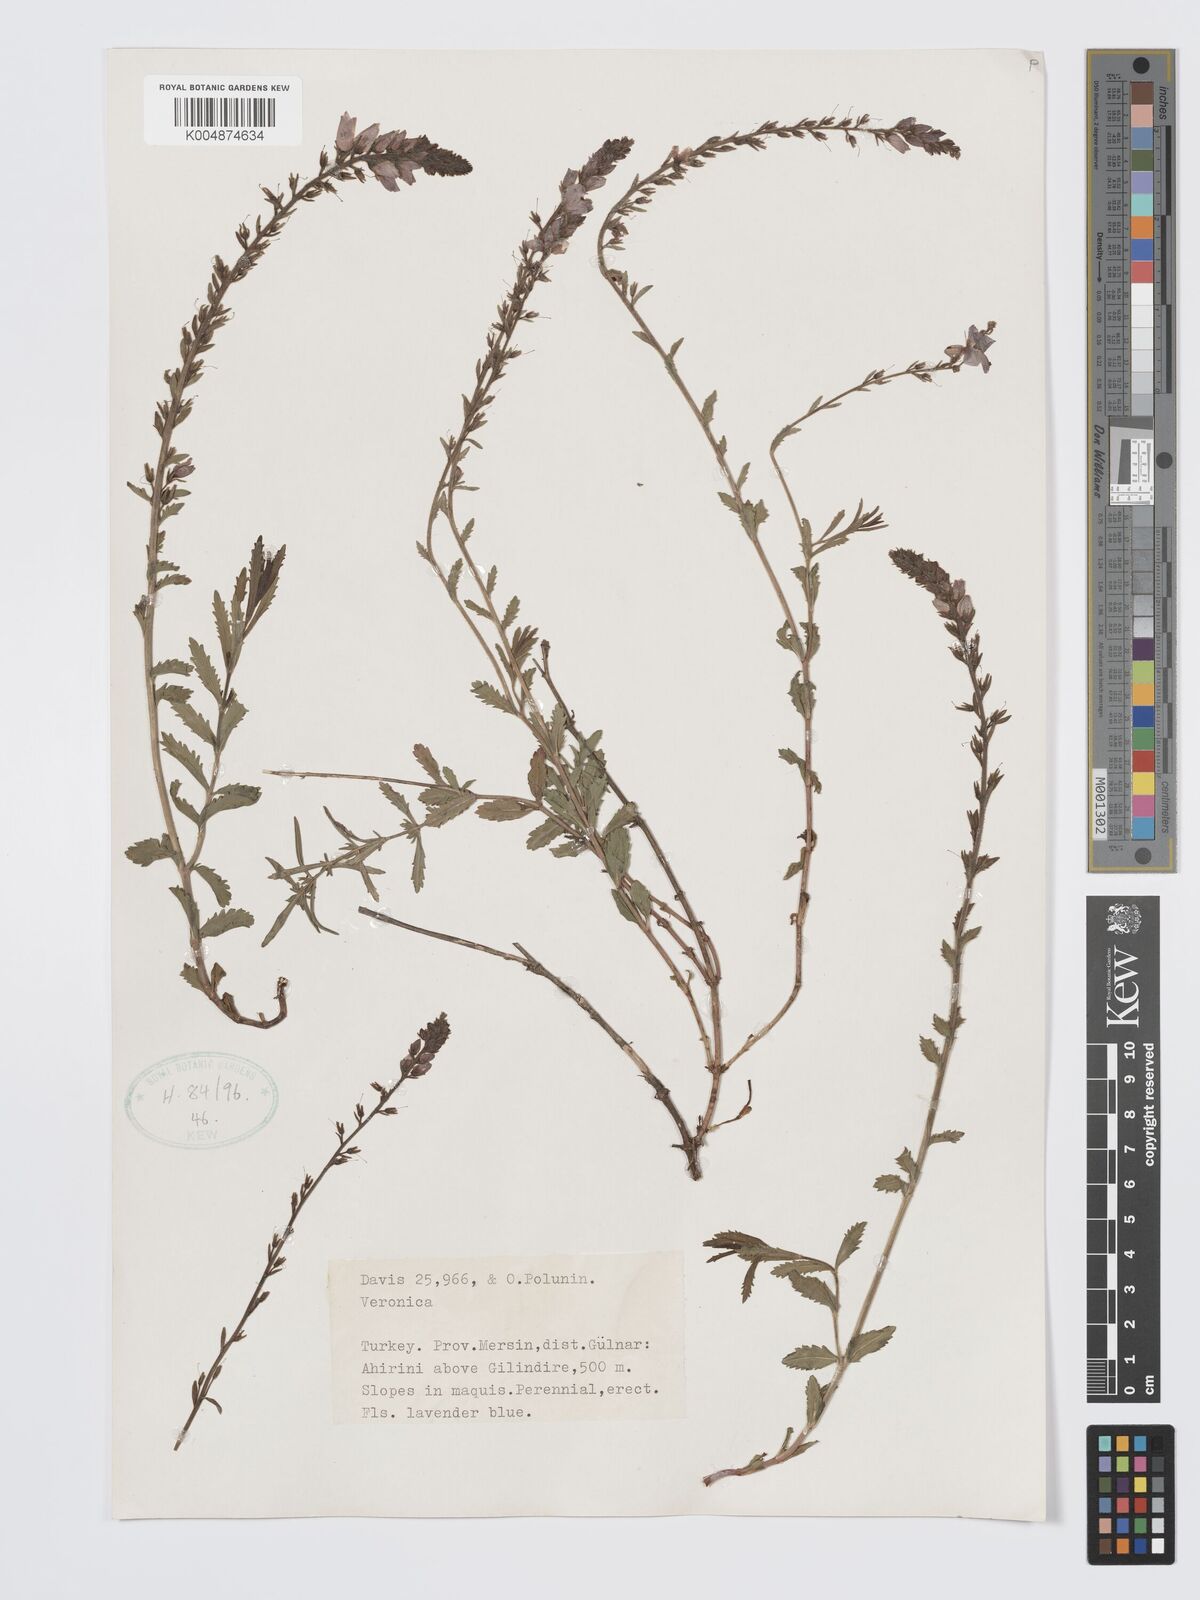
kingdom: Plantae
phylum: Tracheophyta
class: Magnoliopsida
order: Lamiales
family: Plantaginaceae
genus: Veronica
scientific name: Veronica
